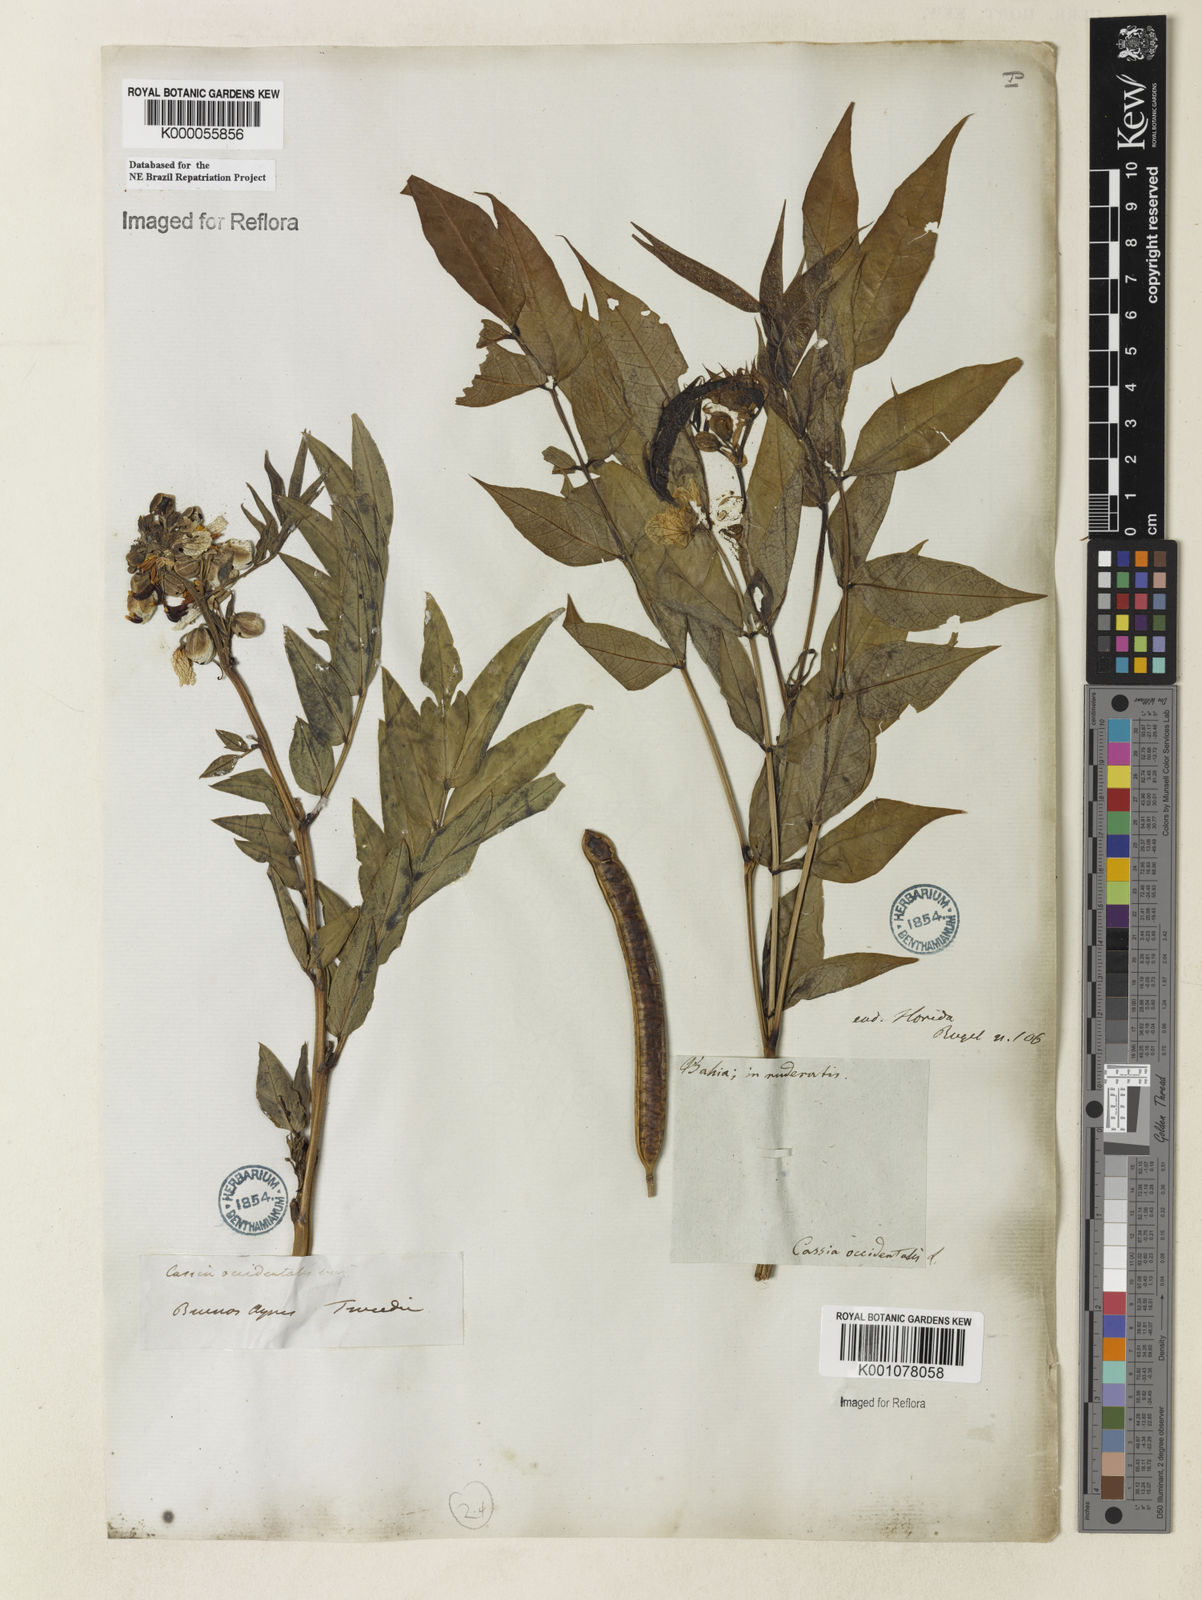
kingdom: Plantae
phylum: Tracheophyta
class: Magnoliopsida
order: Fabales
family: Fabaceae
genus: Senna
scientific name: Senna occidentalis
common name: Septicweed
